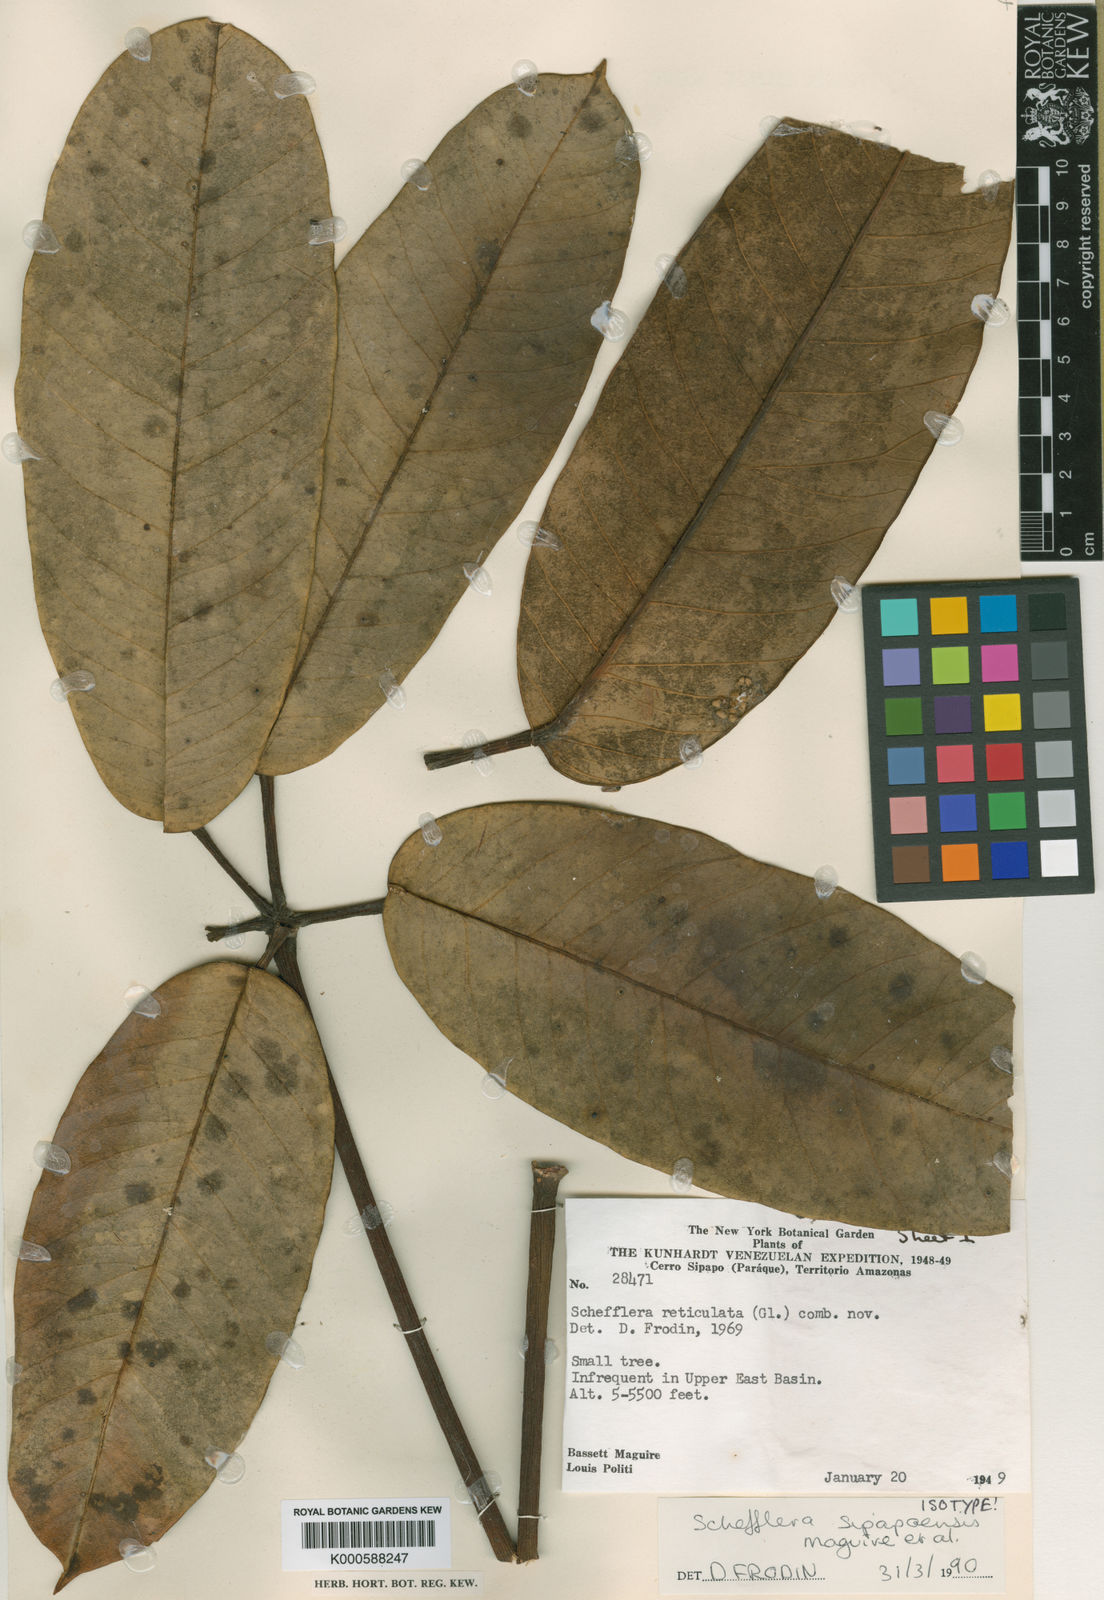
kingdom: Plantae
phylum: Tracheophyta
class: Magnoliopsida
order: Apiales
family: Araliaceae
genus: Sciodaphyllum
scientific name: Sciodaphyllum sipapoense
